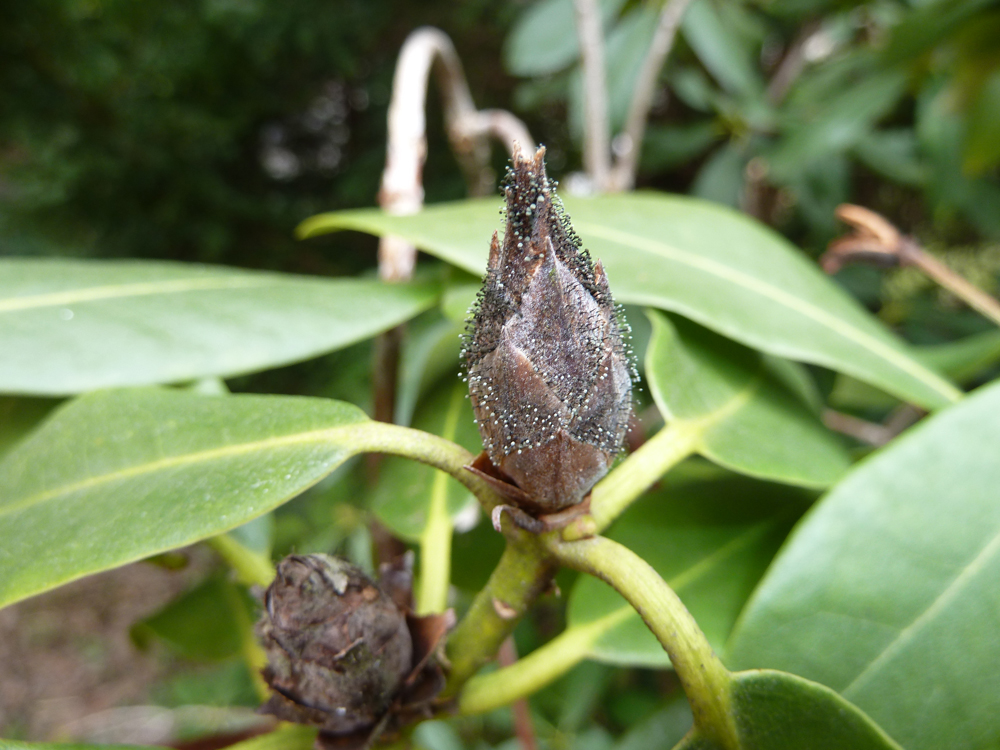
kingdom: Fungi
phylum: Ascomycota
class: Dothideomycetes
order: Pleosporales
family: Melanommataceae
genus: Seifertia
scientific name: Seifertia azaleae
